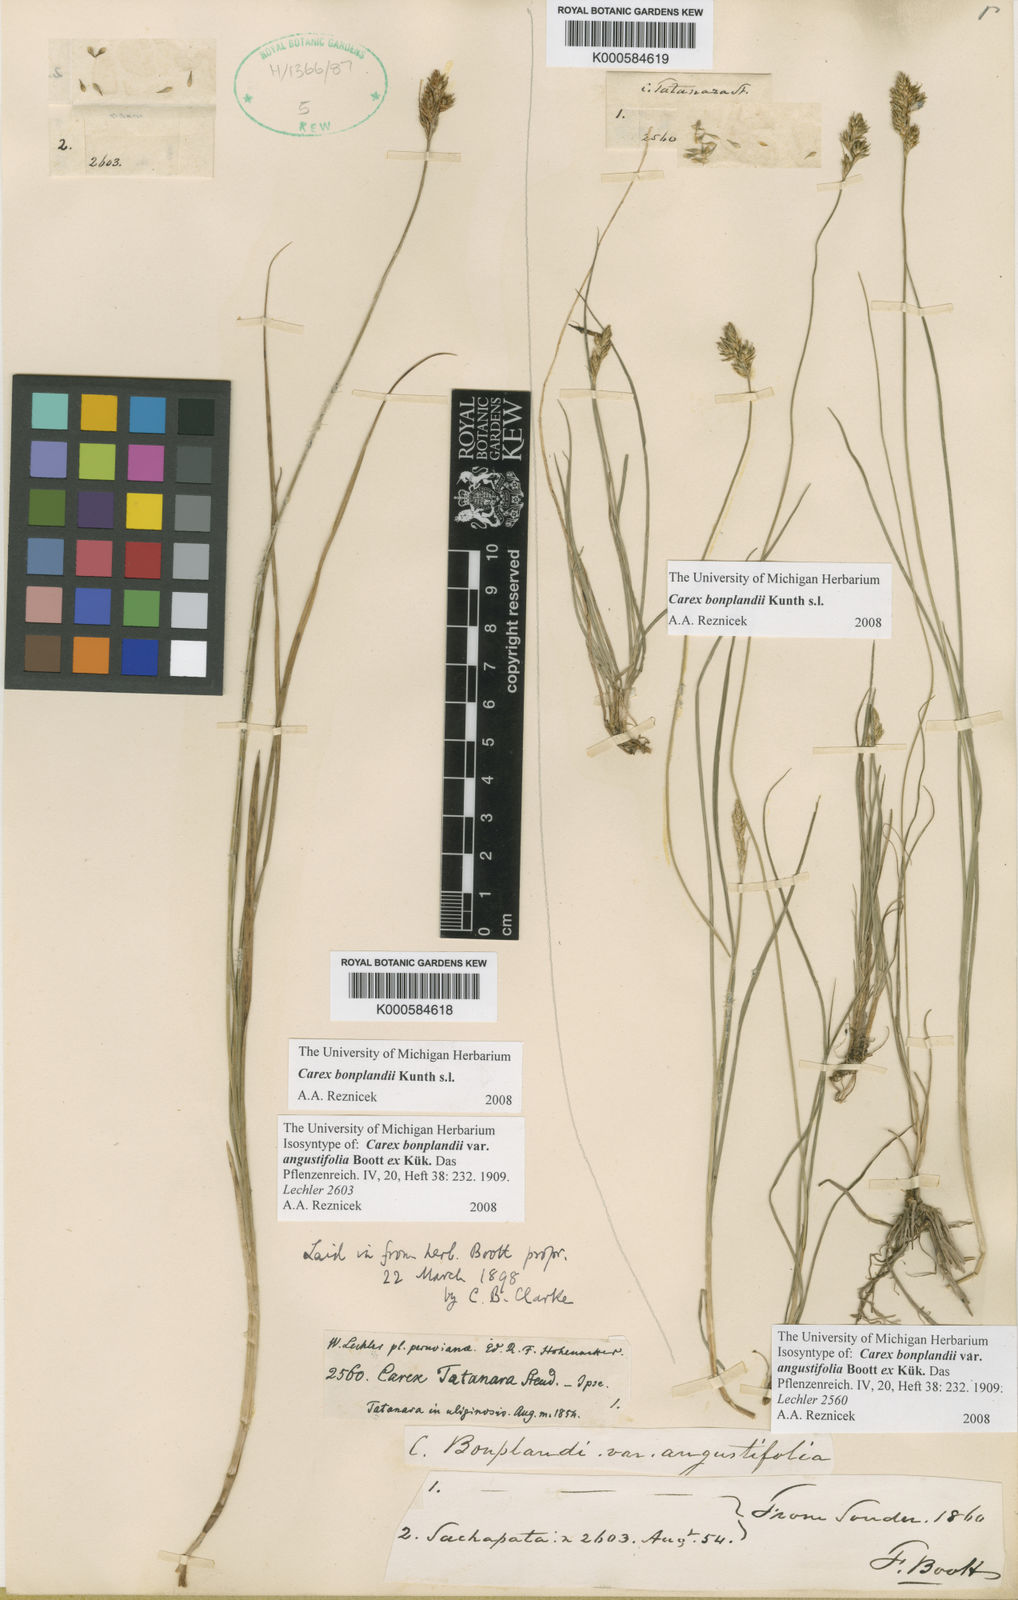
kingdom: Plantae
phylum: Tracheophyta
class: Liliopsida
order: Poales
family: Cyperaceae
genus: Carex
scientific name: Carex bonplandii
